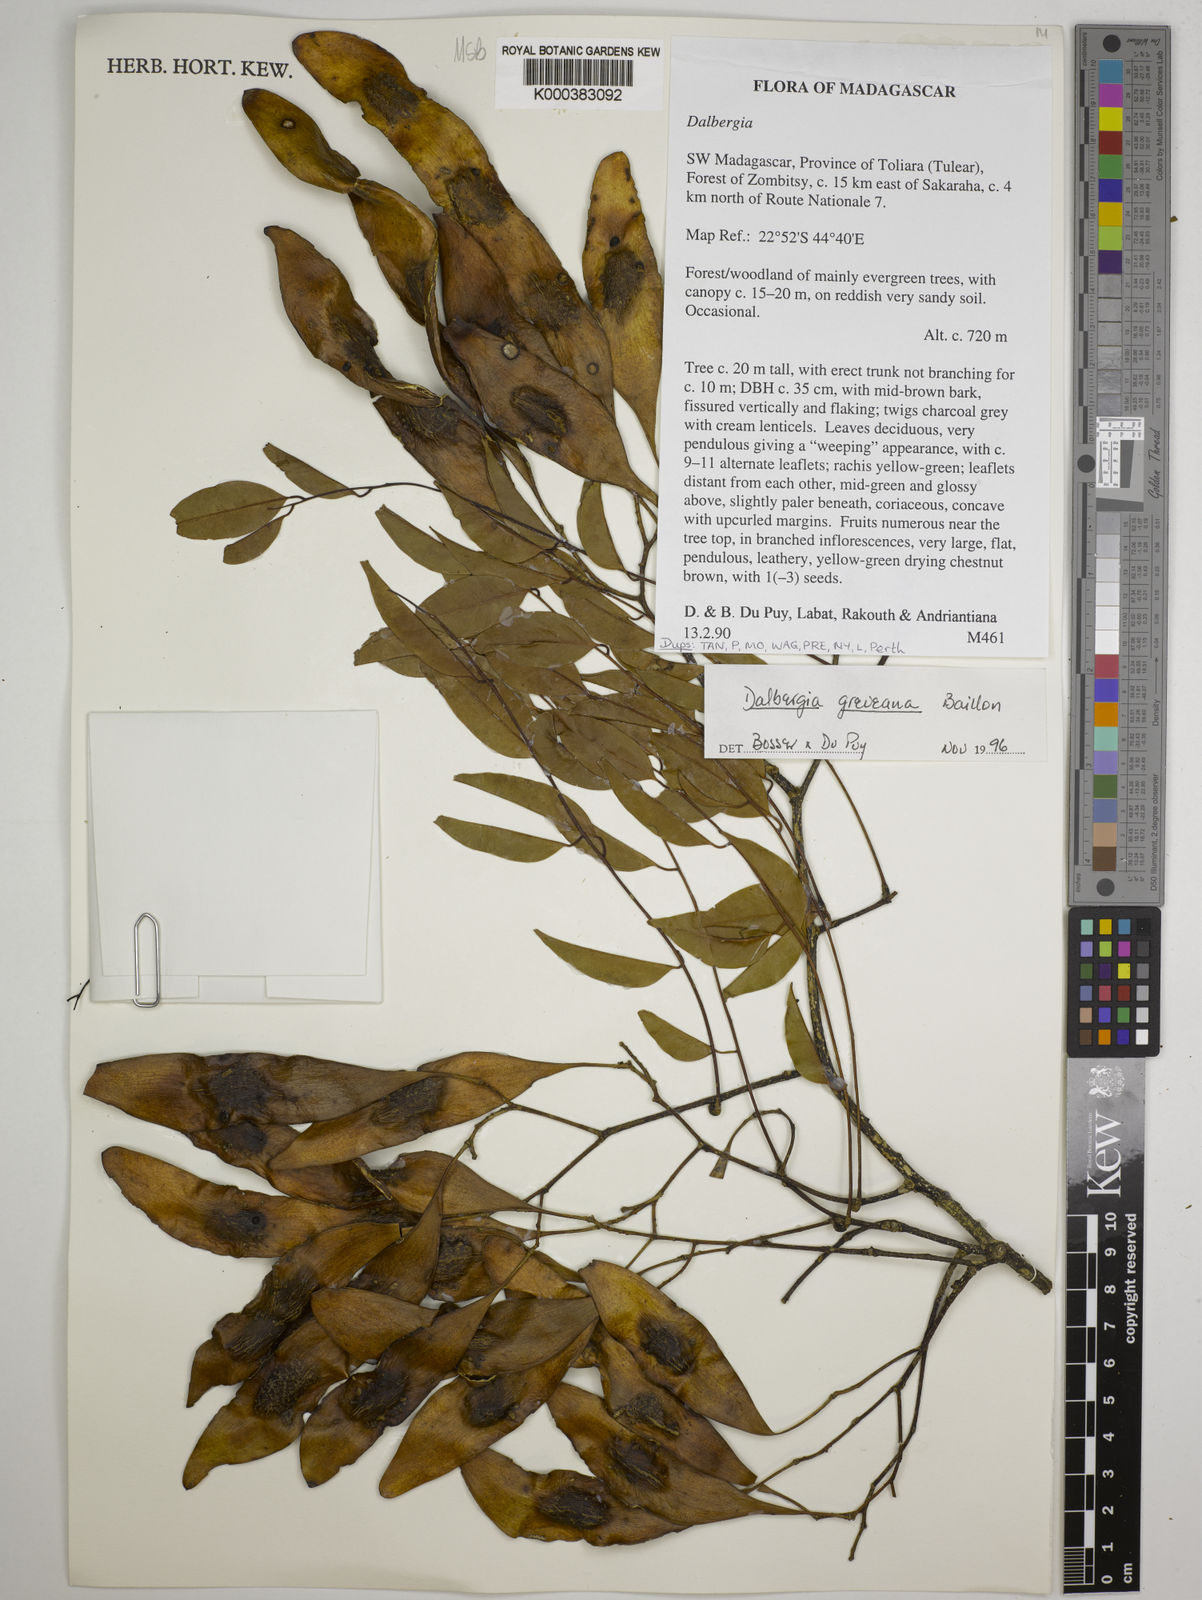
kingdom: Plantae
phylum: Tracheophyta
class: Magnoliopsida
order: Fabales
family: Fabaceae
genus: Dalbergia
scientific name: Dalbergia greveana
